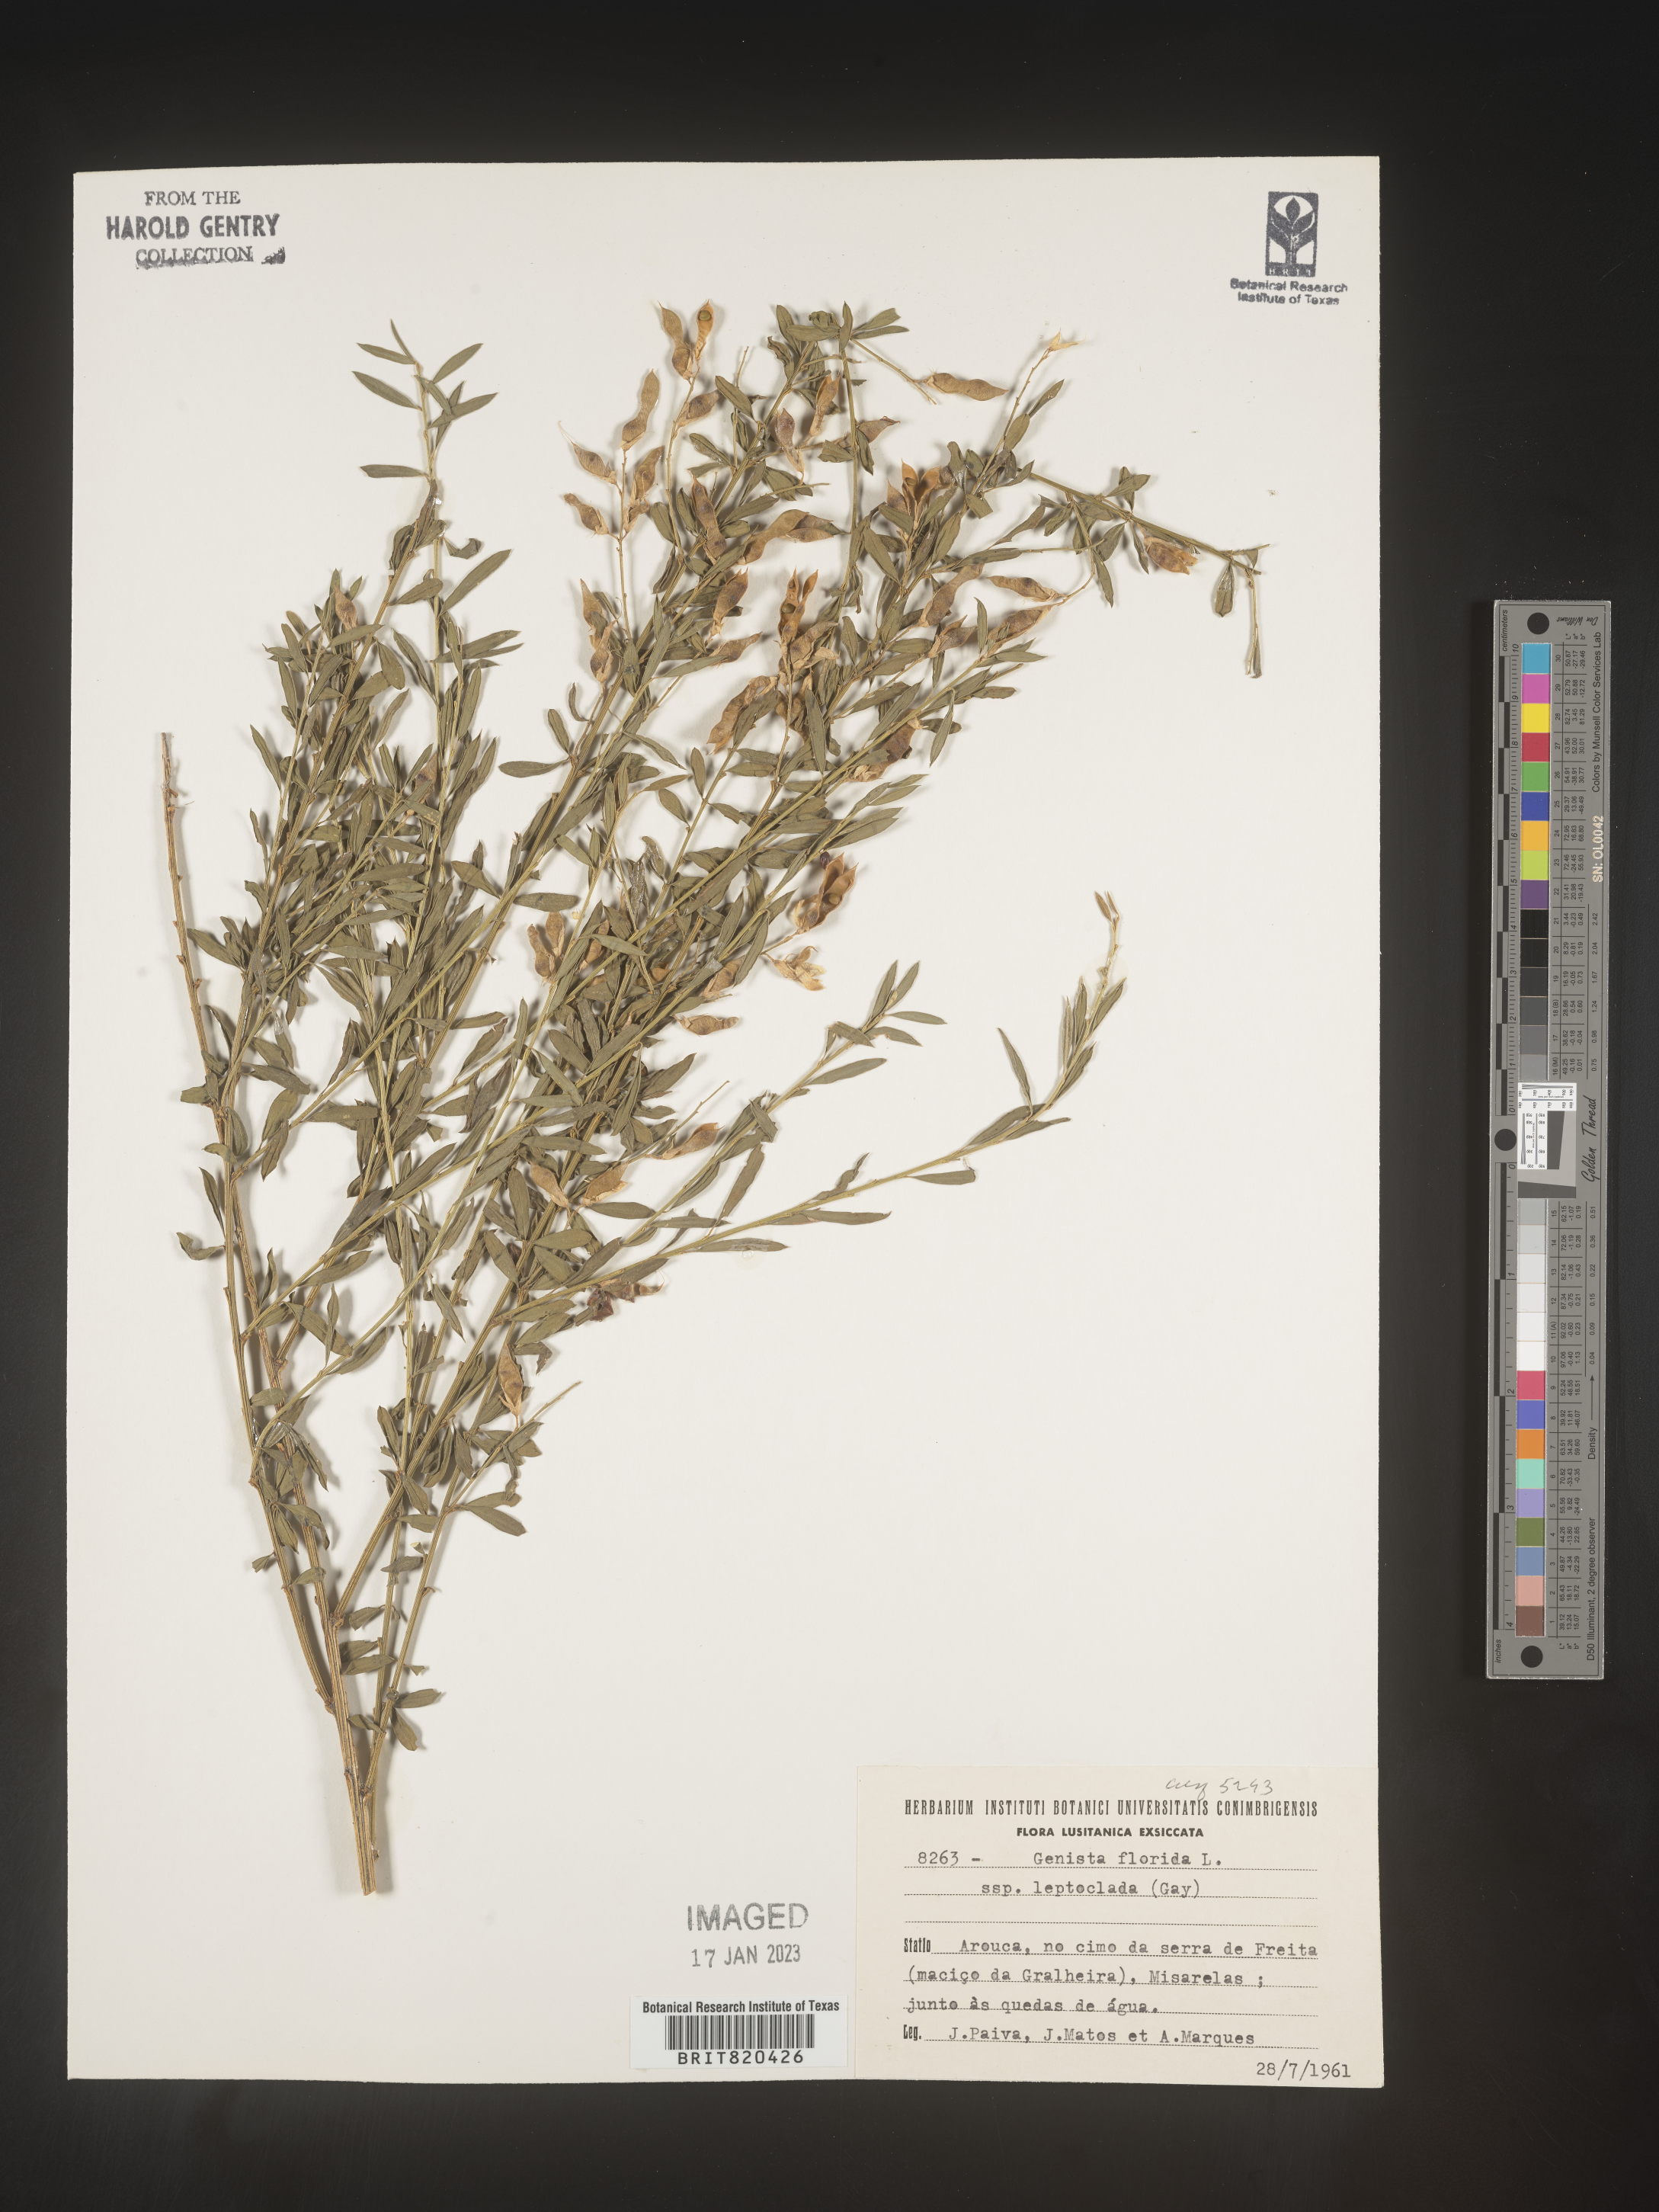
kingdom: Plantae
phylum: Tracheophyta
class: Magnoliopsida
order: Fabales
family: Fabaceae
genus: Genista
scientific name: Genista
